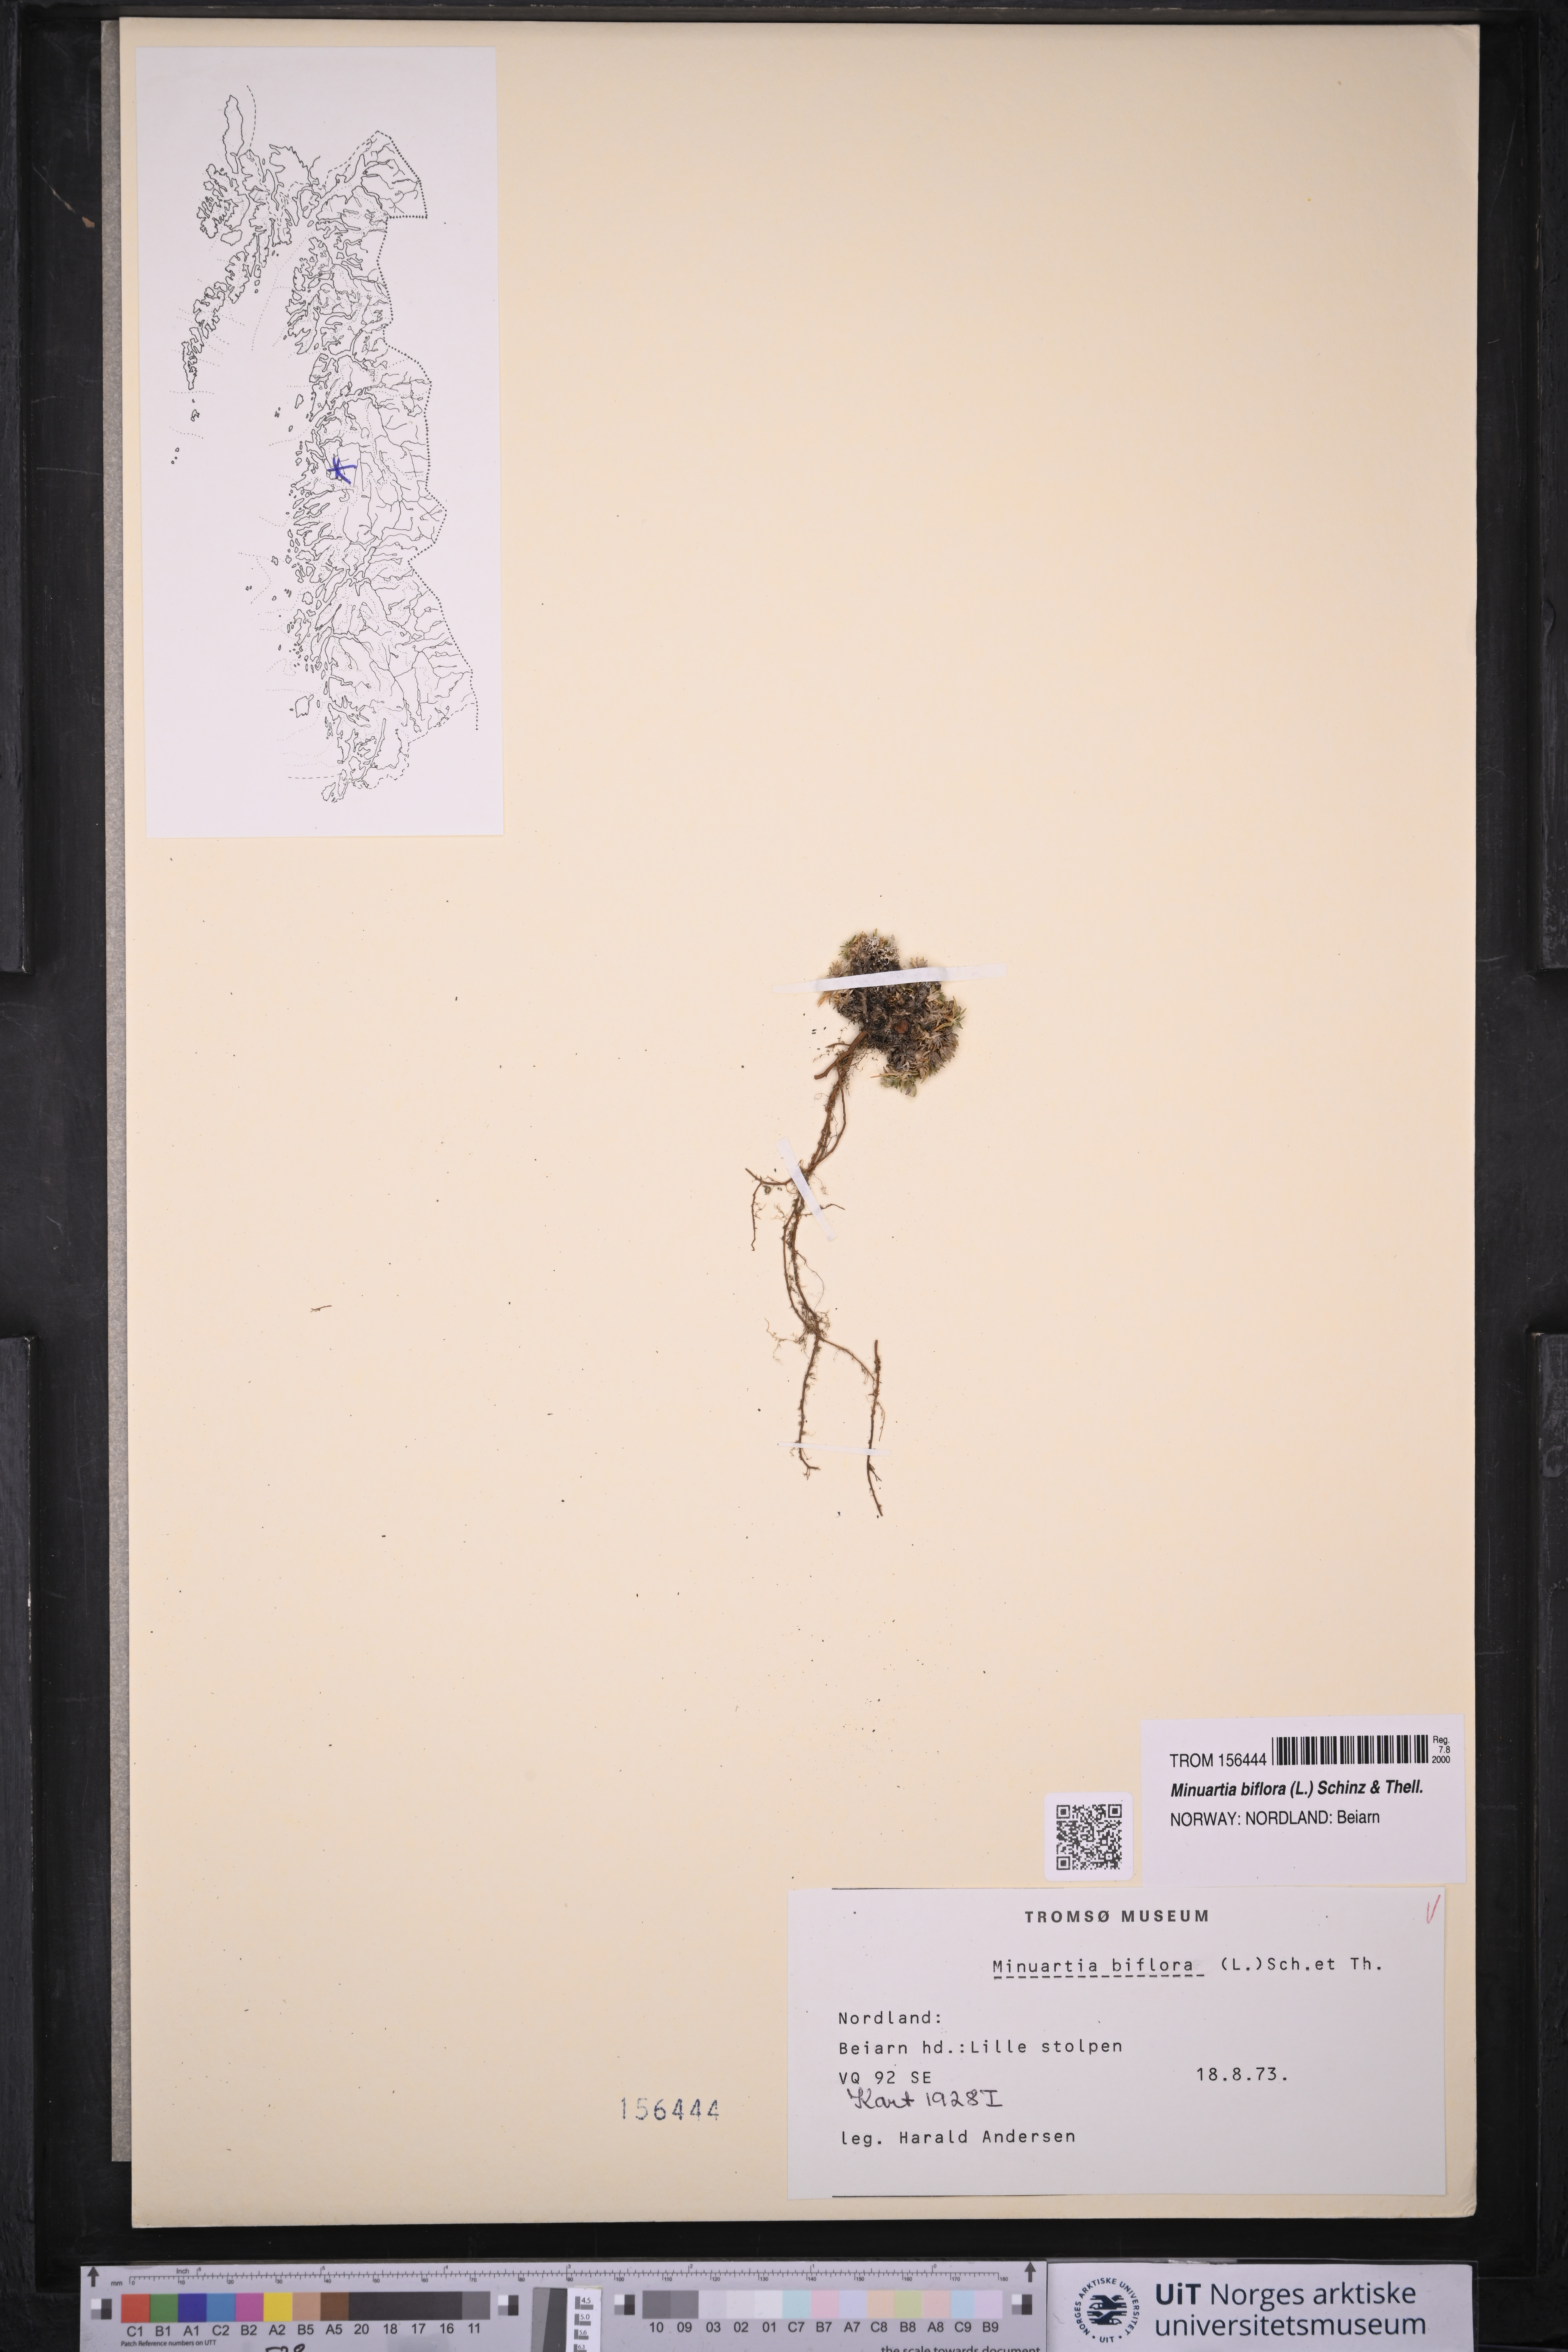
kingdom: Plantae
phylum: Tracheophyta
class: Magnoliopsida
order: Caryophyllales
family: Caryophyllaceae
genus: Cherleria
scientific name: Cherleria biflora
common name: Mountain sandwort
